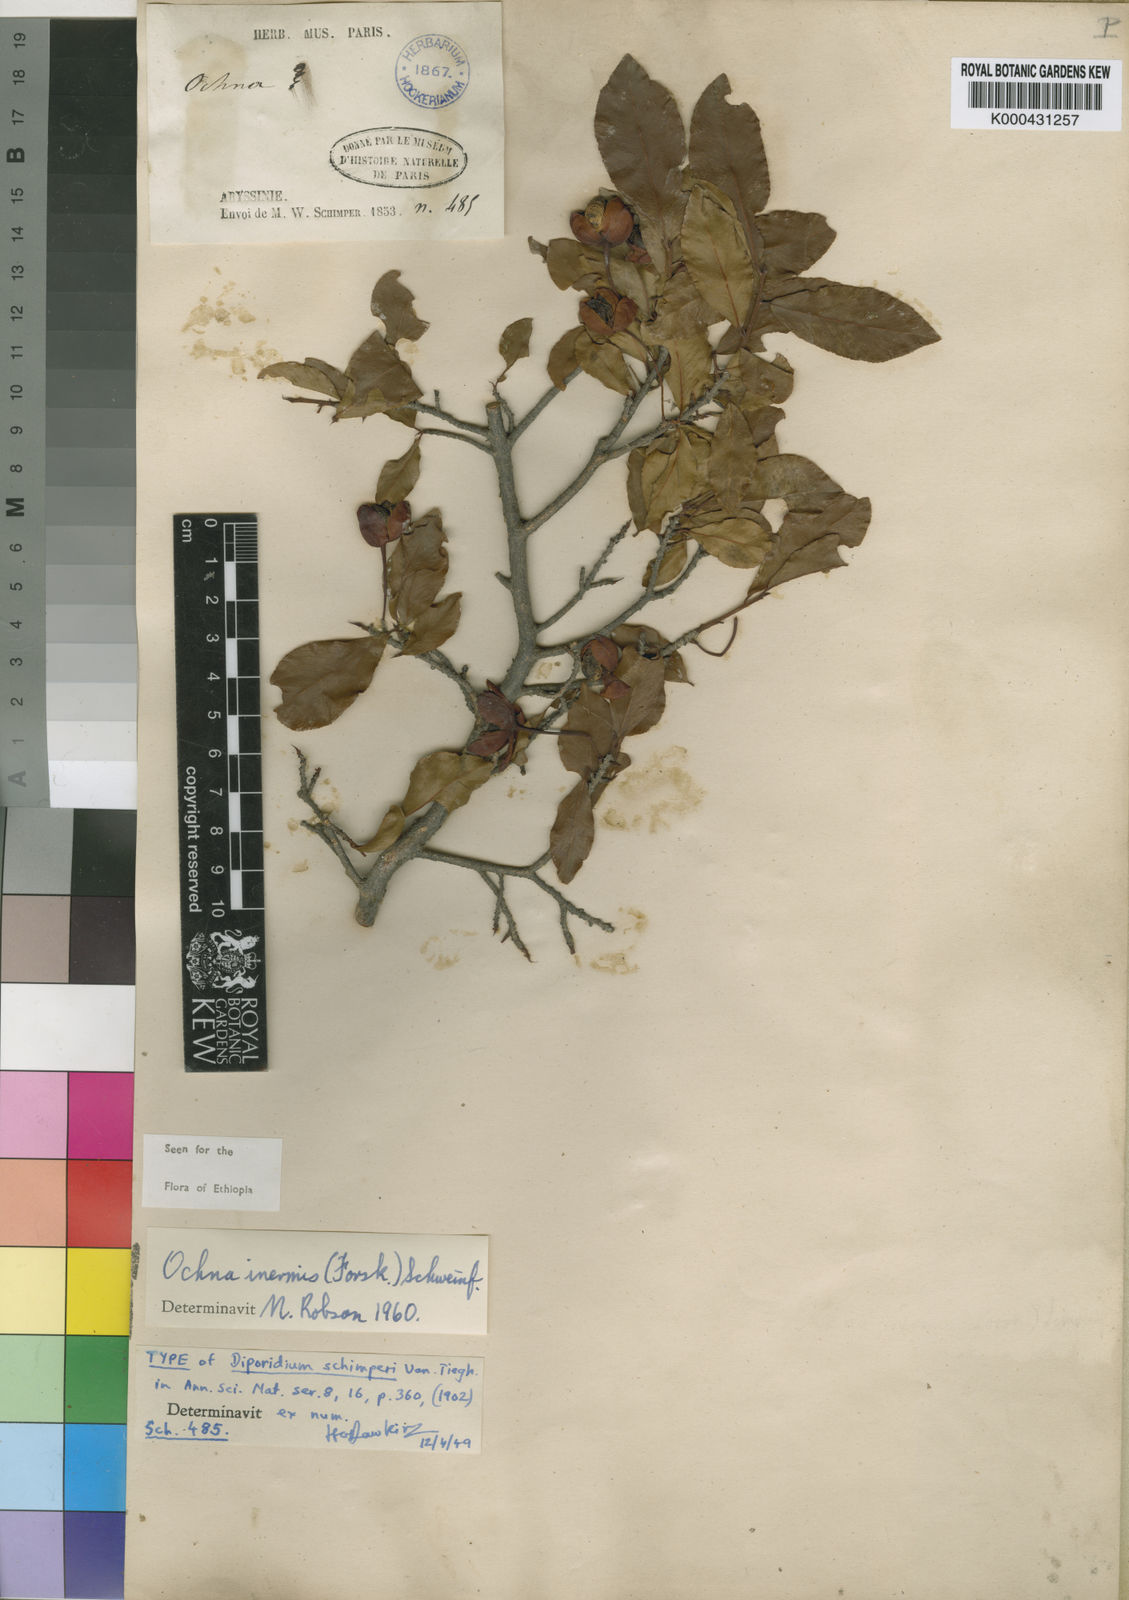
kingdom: Plantae
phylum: Tracheophyta
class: Magnoliopsida
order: Malpighiales
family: Ochnaceae
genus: Ochna
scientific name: Ochna inermis
